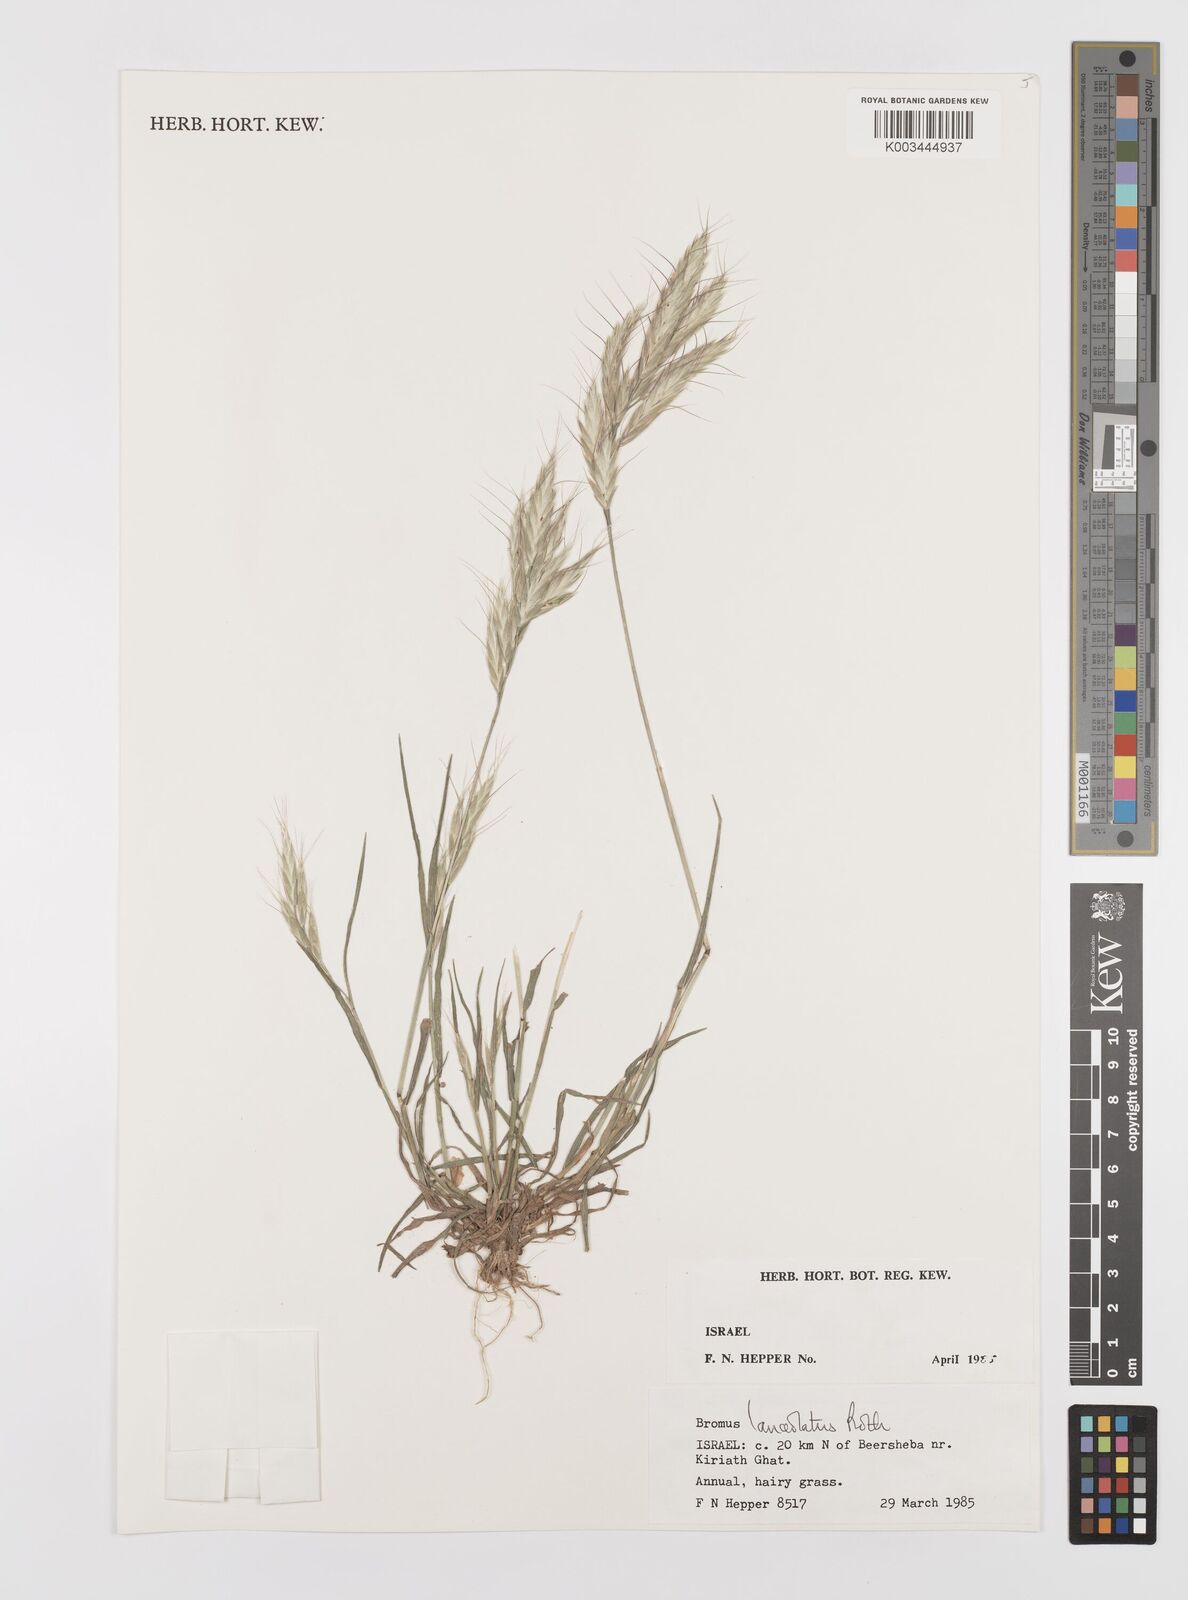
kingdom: Plantae
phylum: Tracheophyta
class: Liliopsida
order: Poales
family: Poaceae
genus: Bromus
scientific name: Bromus lanceolatus
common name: Mediterranean brome
